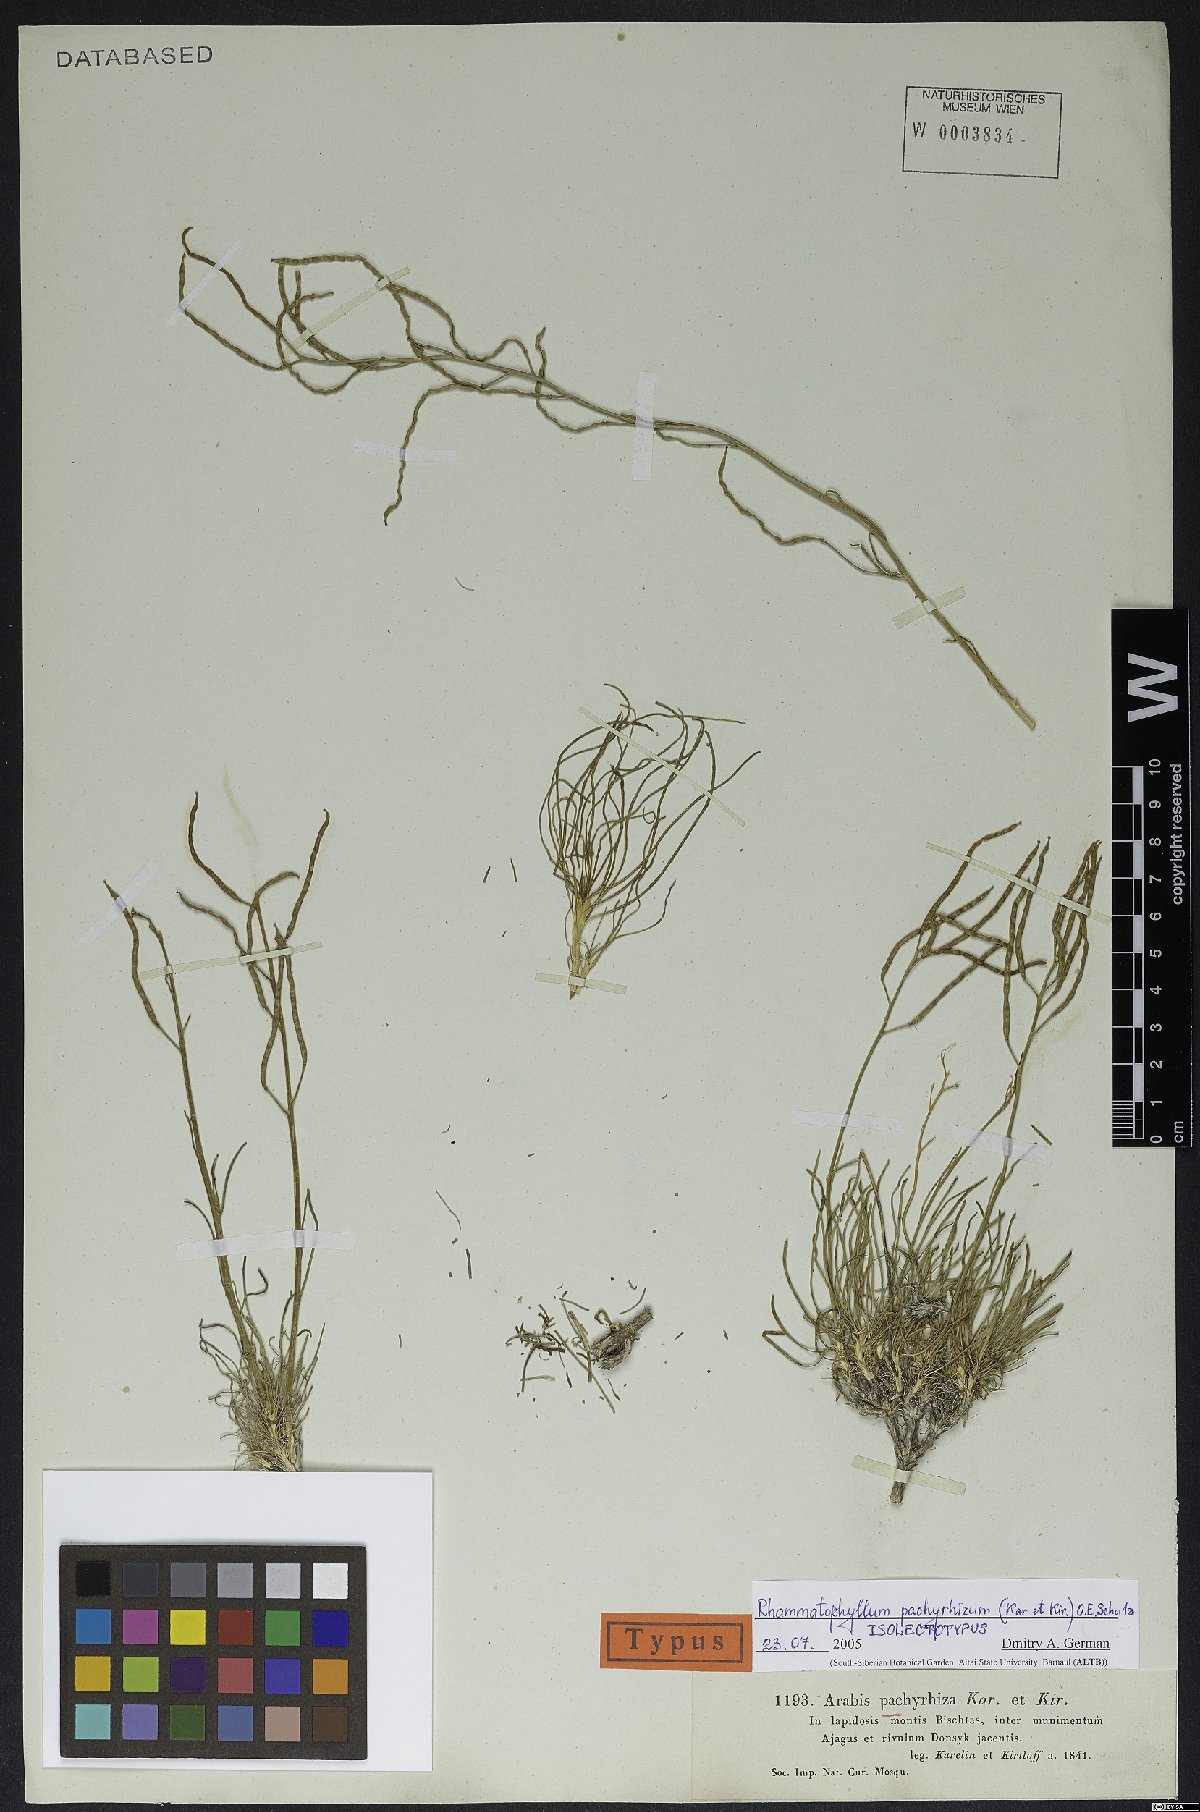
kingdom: Plantae
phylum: Tracheophyta
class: Magnoliopsida
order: Brassicales
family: Brassicaceae
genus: Rhammatophyllum
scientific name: Rhammatophyllum pachyrhizum
